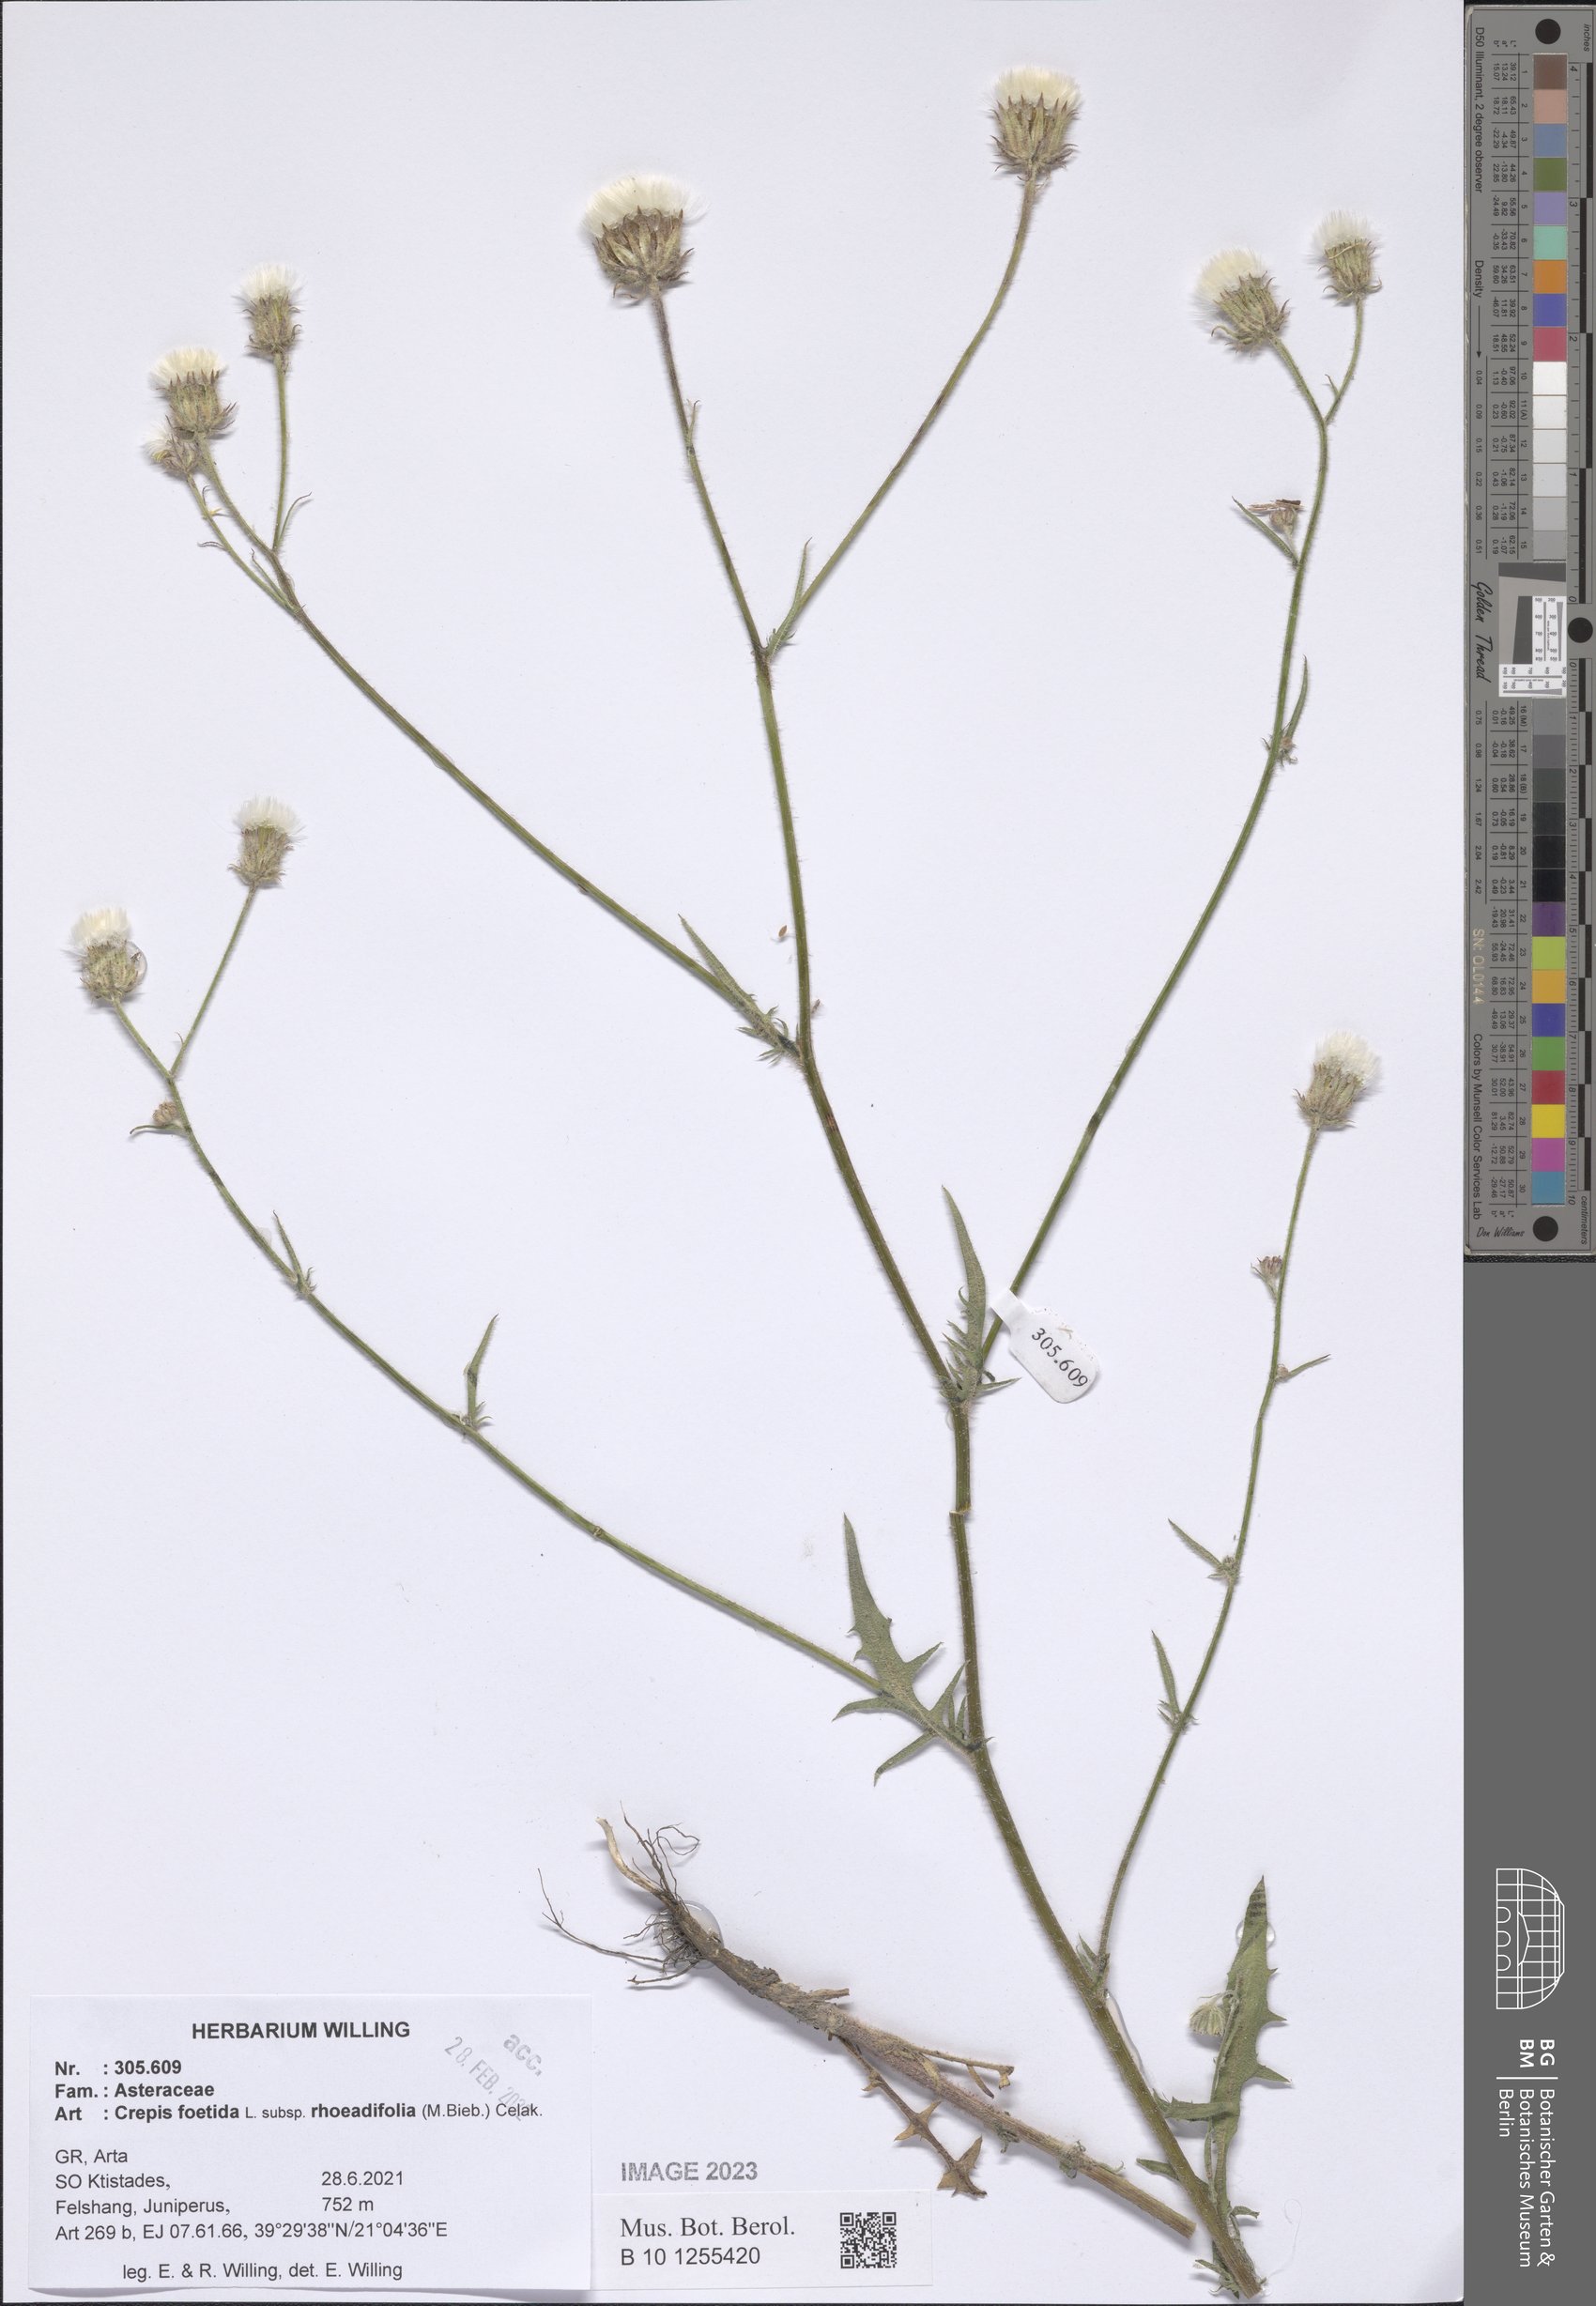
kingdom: Plantae
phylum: Tracheophyta
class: Magnoliopsida
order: Asterales
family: Asteraceae
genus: Crepis
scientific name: Crepis foetida
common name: Stinking hawk's-beard
